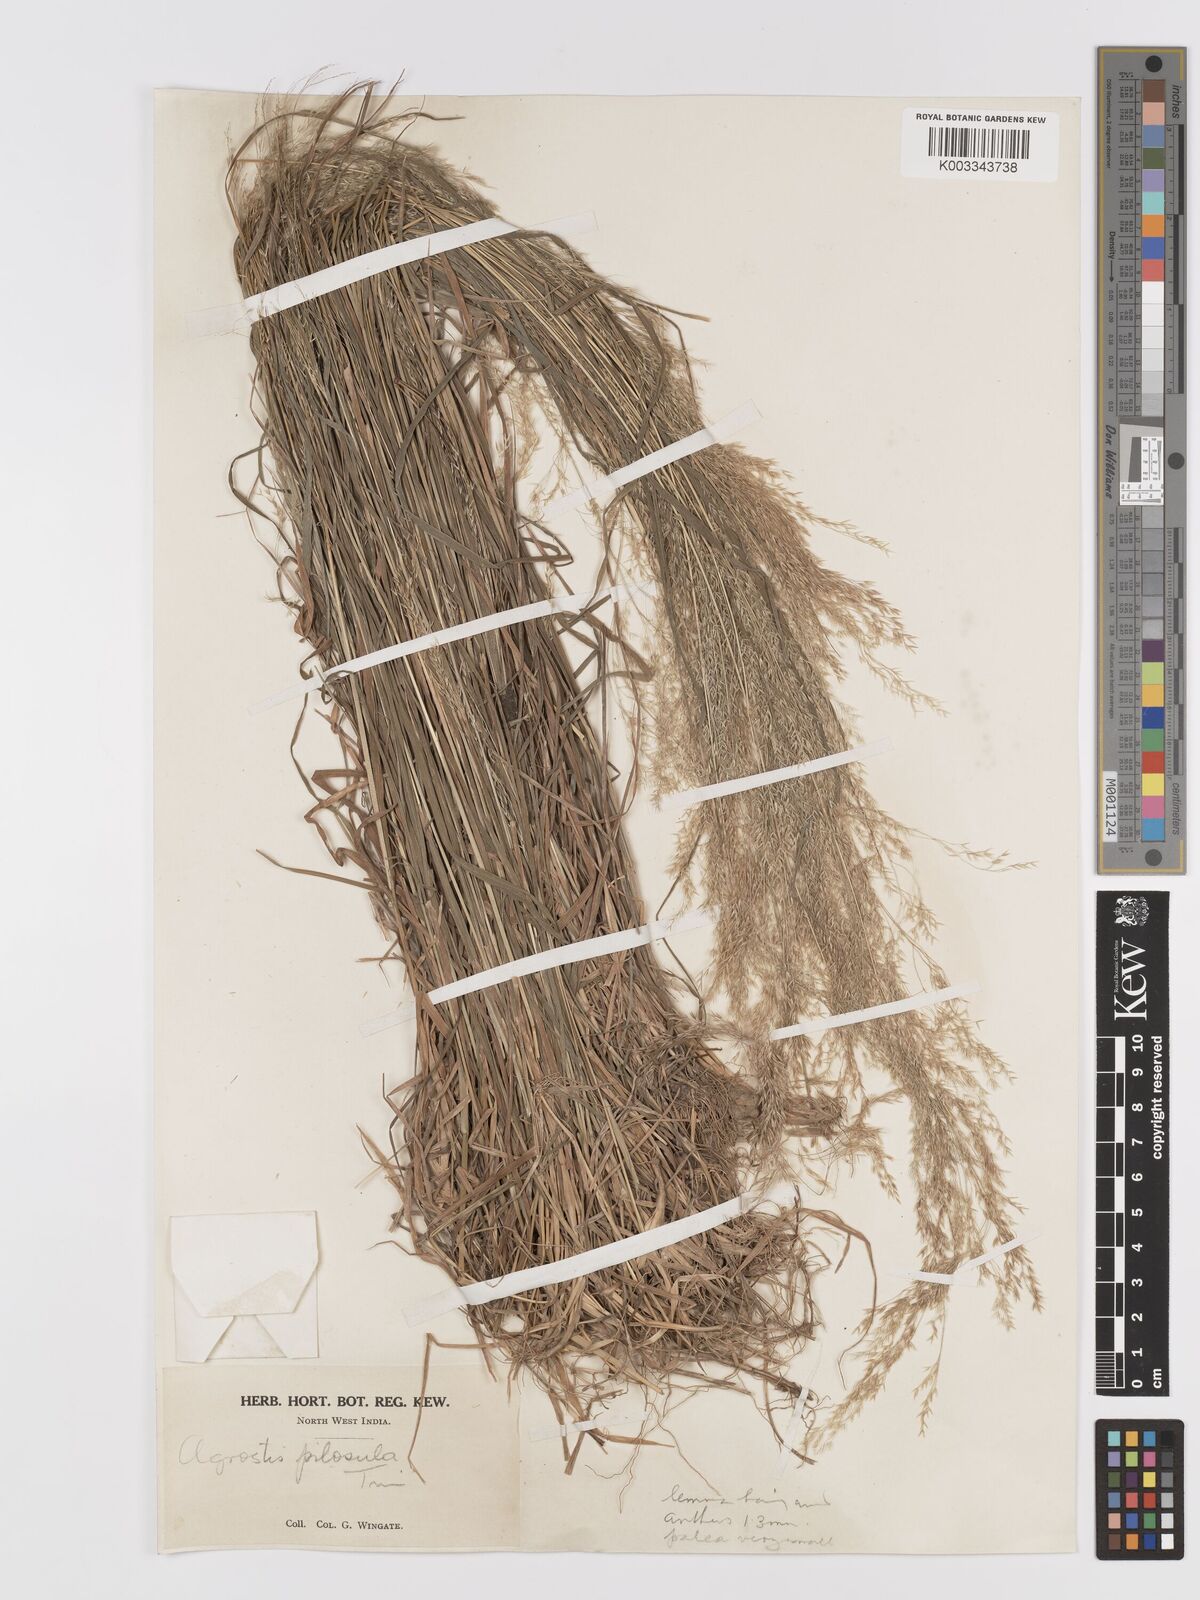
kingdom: Plantae
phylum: Tracheophyta
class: Liliopsida
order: Poales
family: Poaceae
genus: Agrostis
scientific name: Agrostis pilosula
